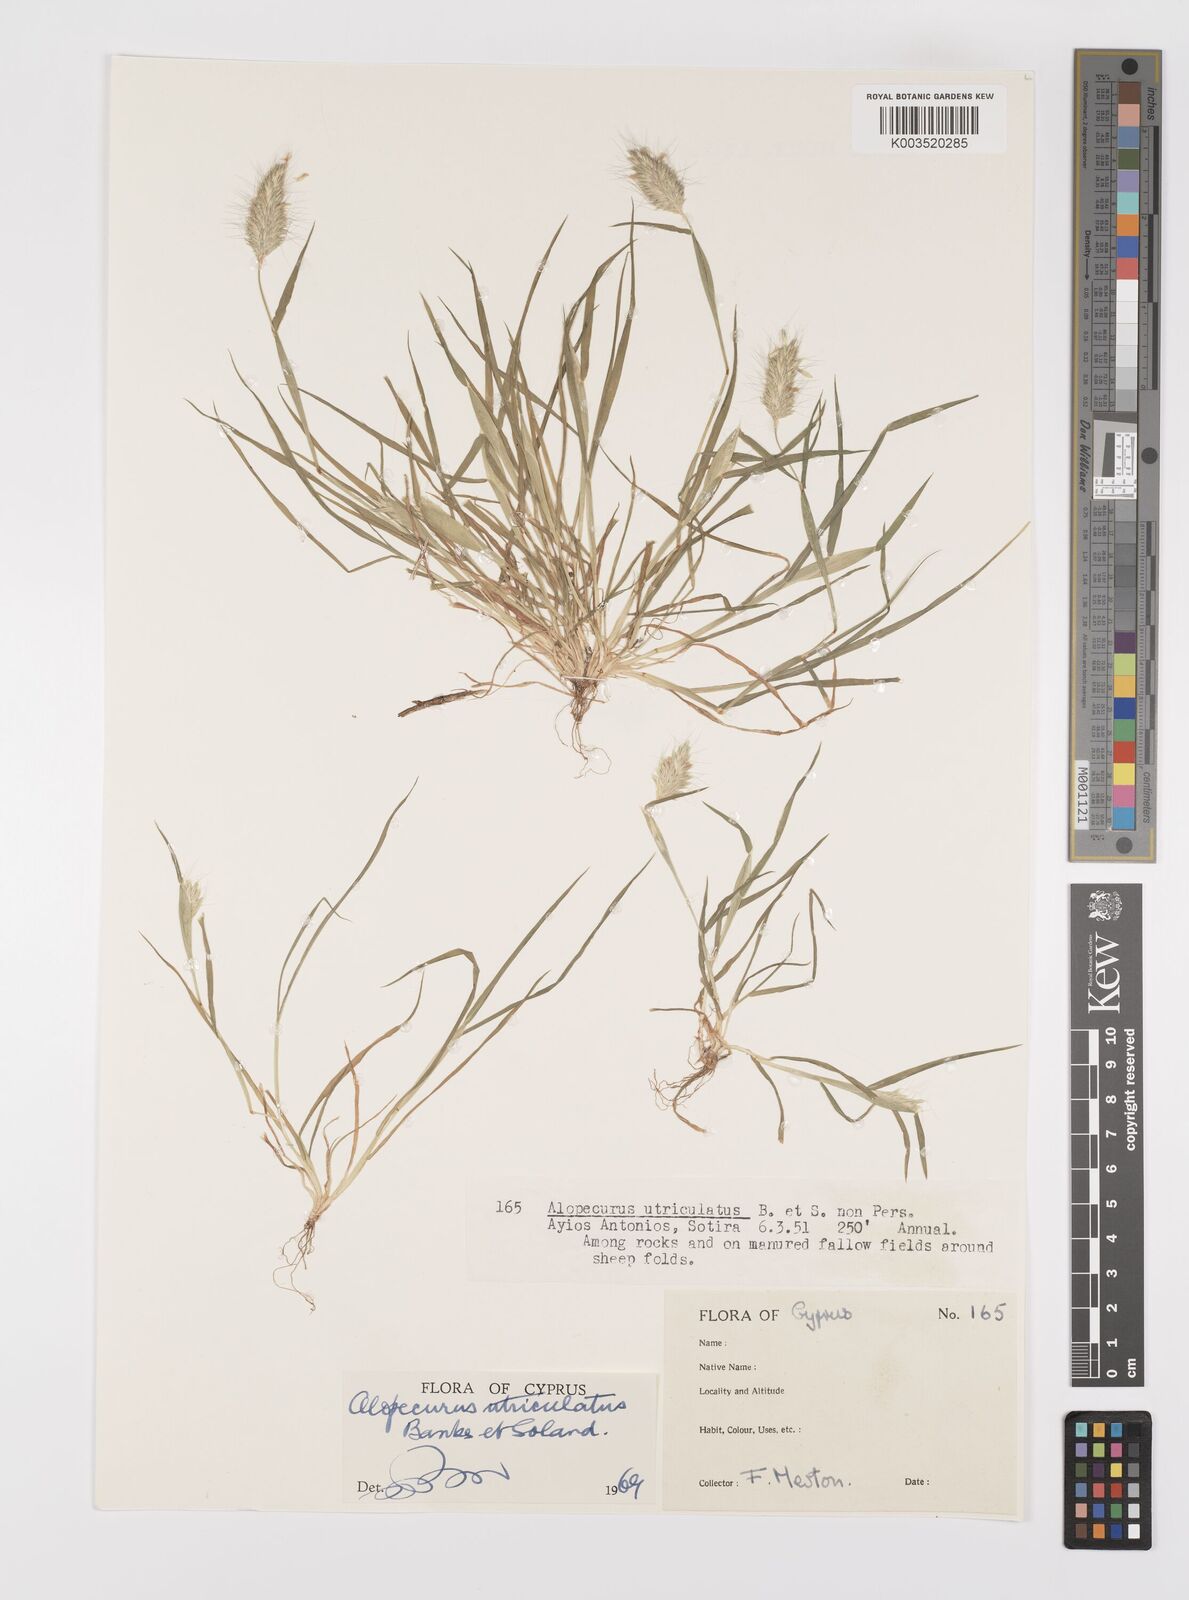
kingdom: Plantae
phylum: Tracheophyta
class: Liliopsida
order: Poales
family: Poaceae
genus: Alopecurus
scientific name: Alopecurus utriculatus
